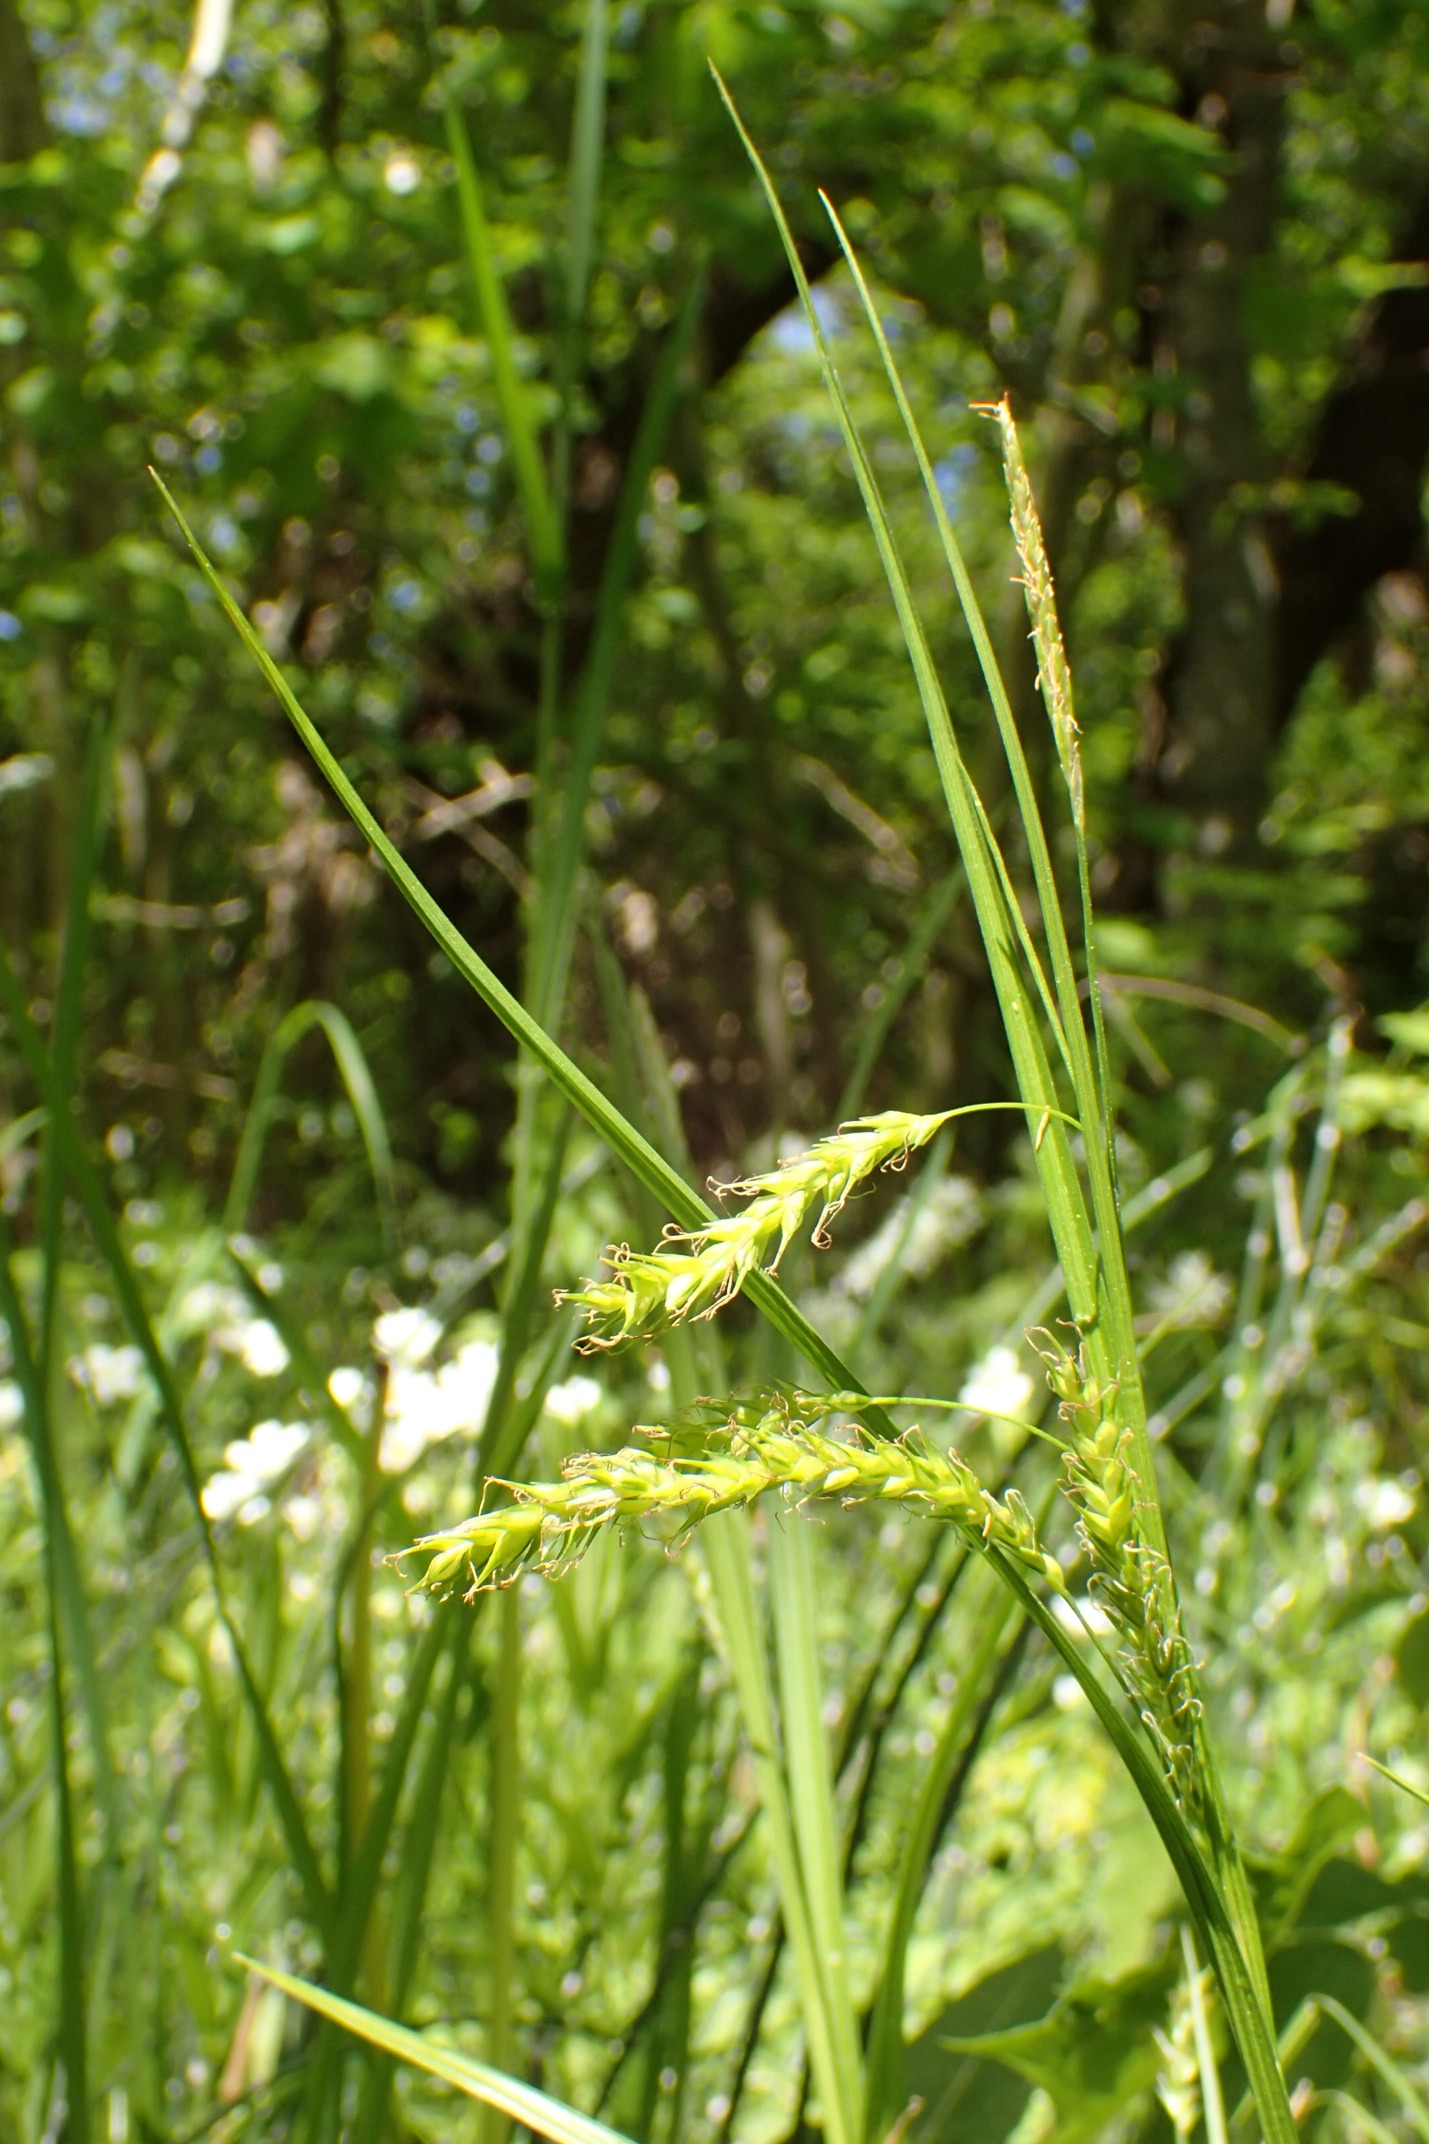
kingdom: Plantae
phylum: Tracheophyta
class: Liliopsida
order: Poales
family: Cyperaceae
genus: Carex
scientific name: Carex sylvatica
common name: Skov-star
